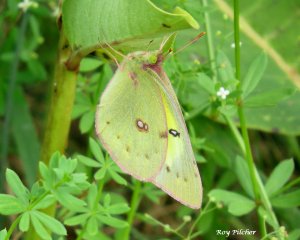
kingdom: Animalia
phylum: Arthropoda
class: Insecta
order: Lepidoptera
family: Pieridae
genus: Colias
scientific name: Colias philodice
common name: Clouded Sulphur
